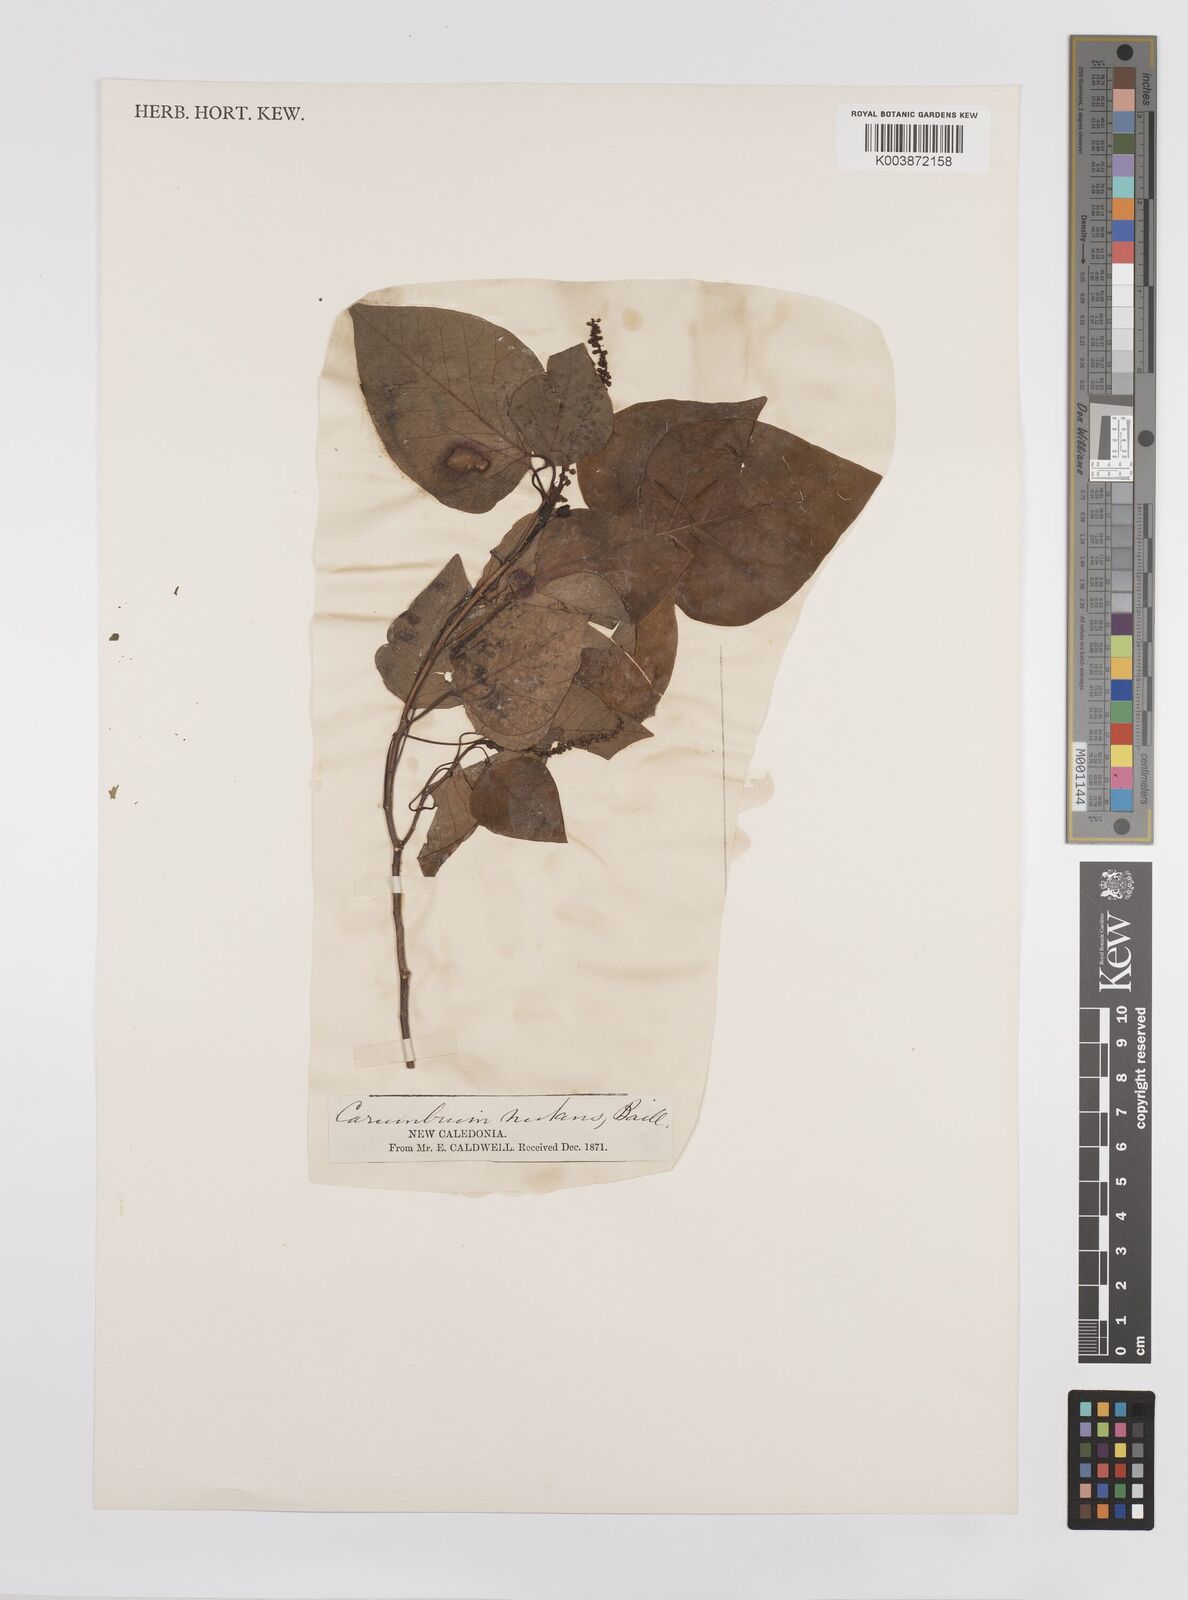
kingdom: Plantae
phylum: Tracheophyta
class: Magnoliopsida
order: Malpighiales
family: Euphorbiaceae
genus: Homalanthus
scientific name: Homalanthus nutans
